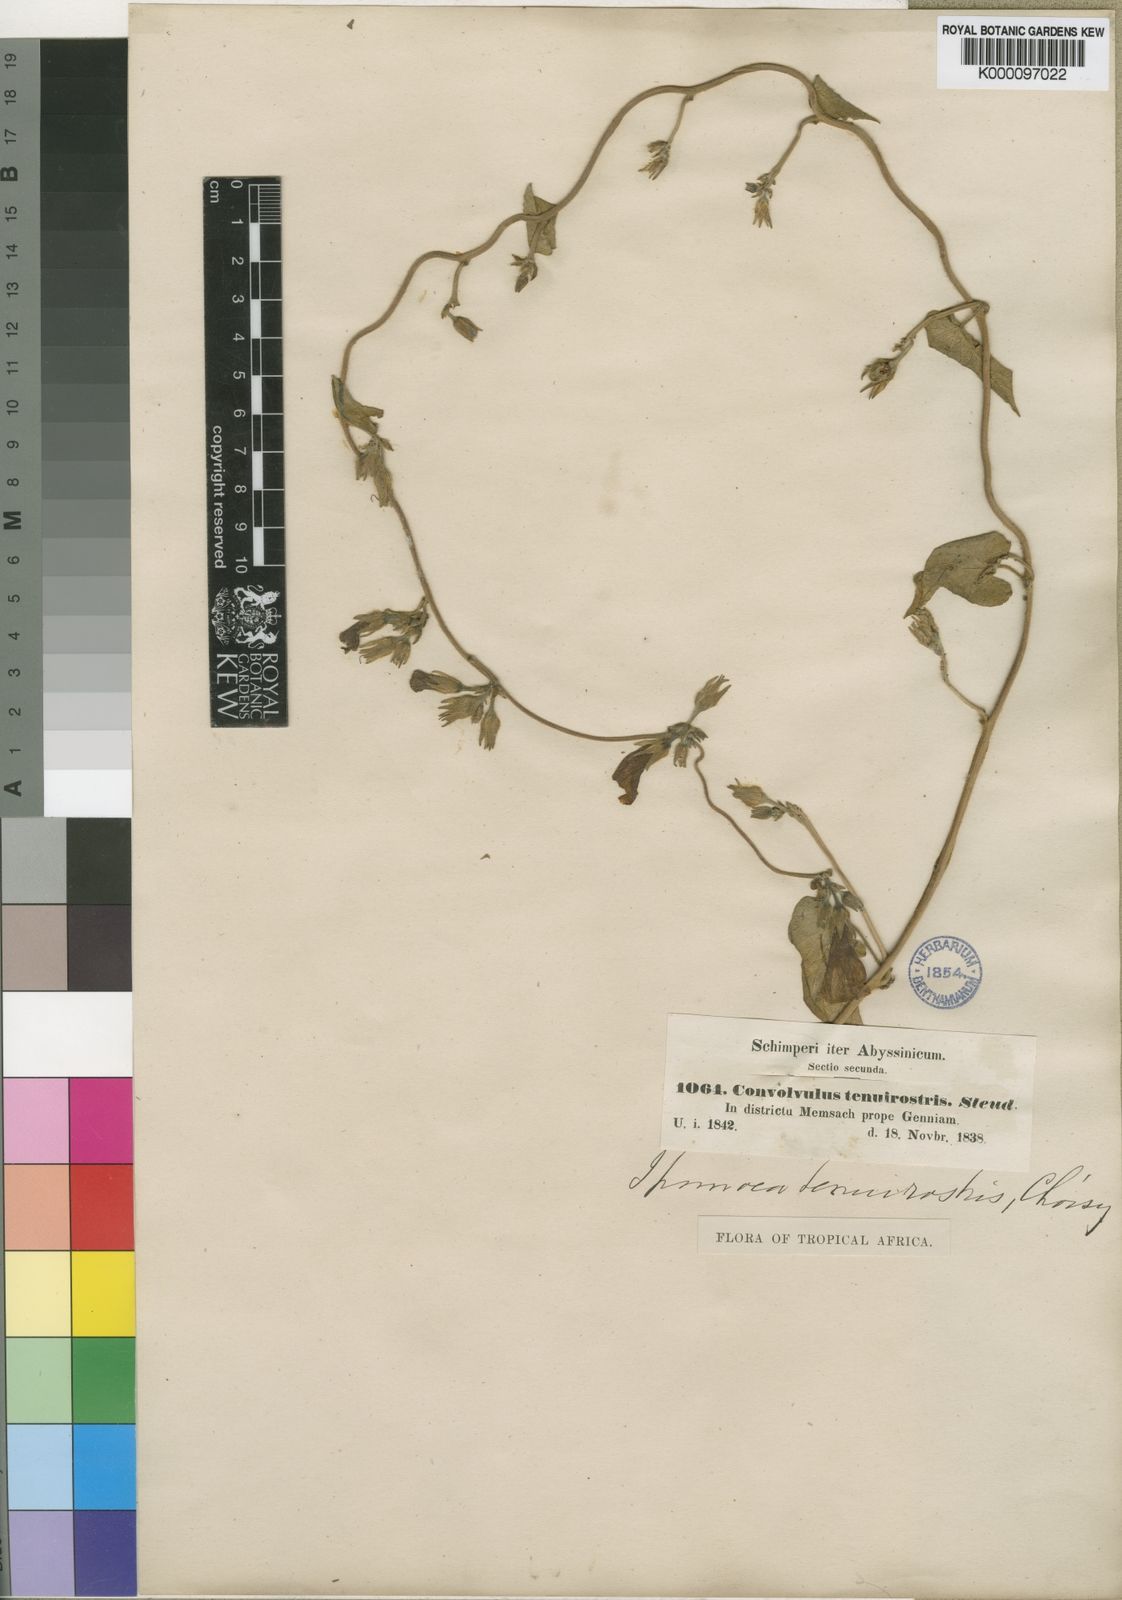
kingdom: Plantae
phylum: Tracheophyta
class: Magnoliopsida
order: Solanales
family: Convolvulaceae
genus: Ipomoea
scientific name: Ipomoea tenuirostris
